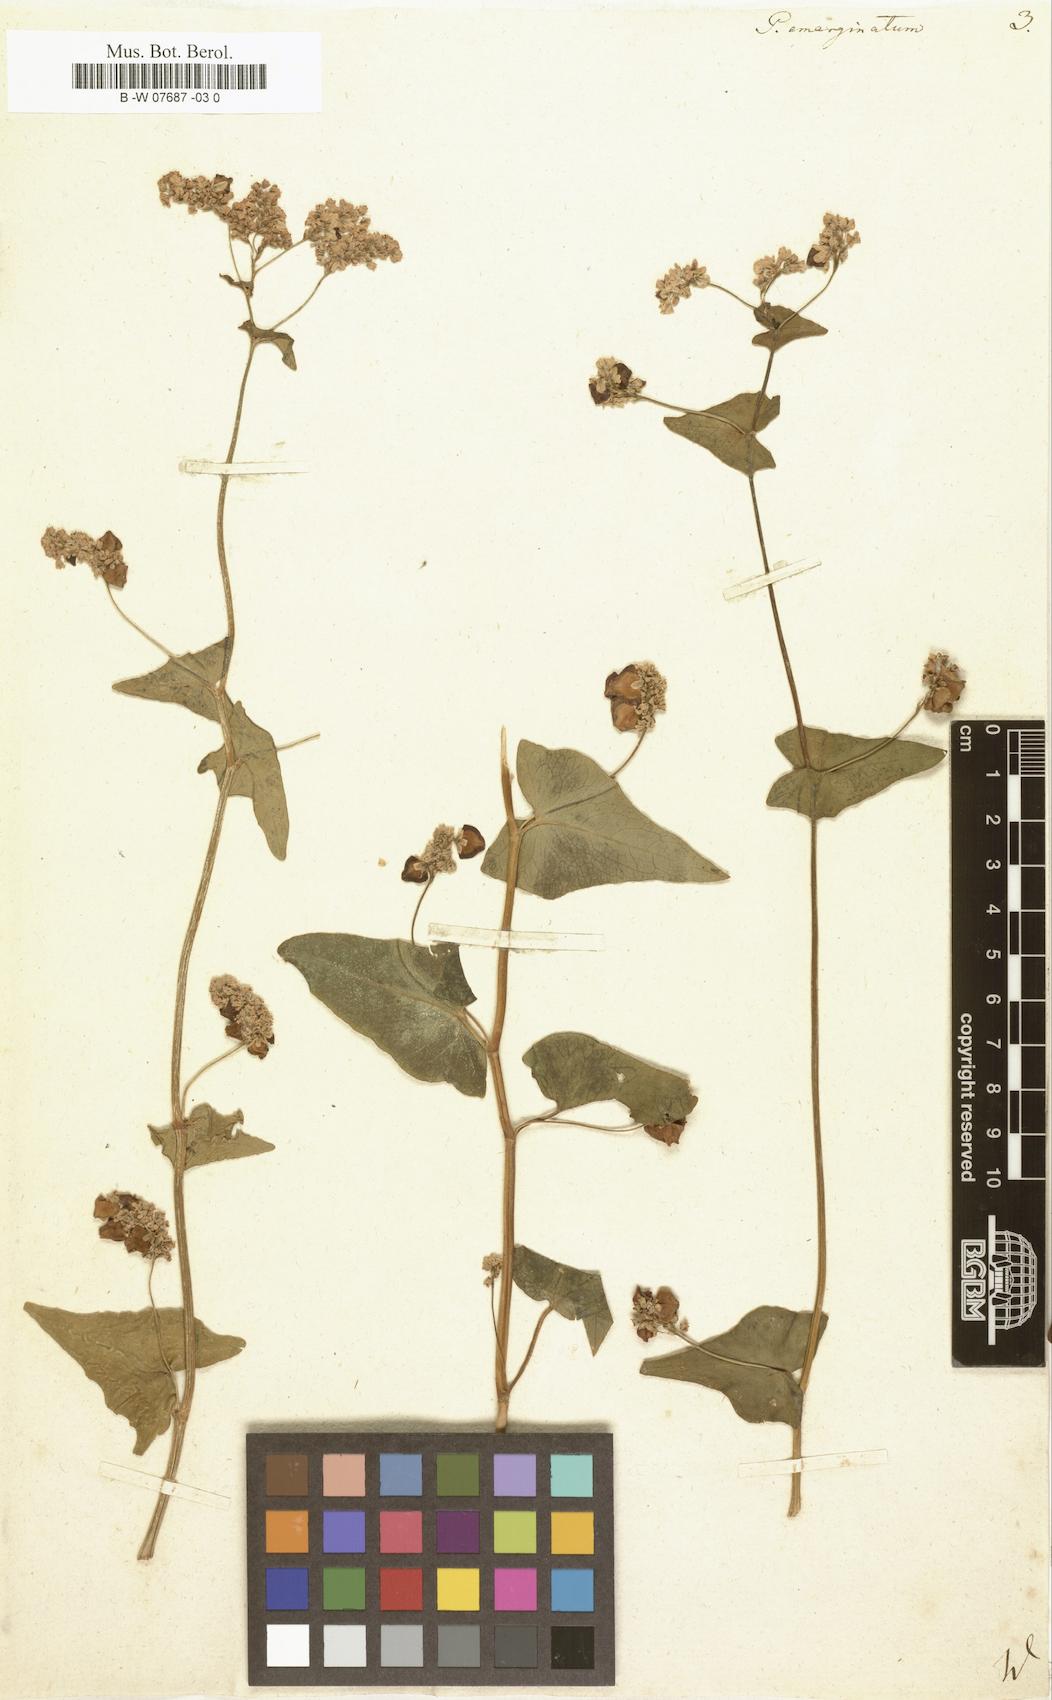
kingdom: Plantae
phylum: Tracheophyta
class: Magnoliopsida
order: Caryophyllales
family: Polygonaceae
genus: Fagopyrum
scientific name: Fagopyrum
